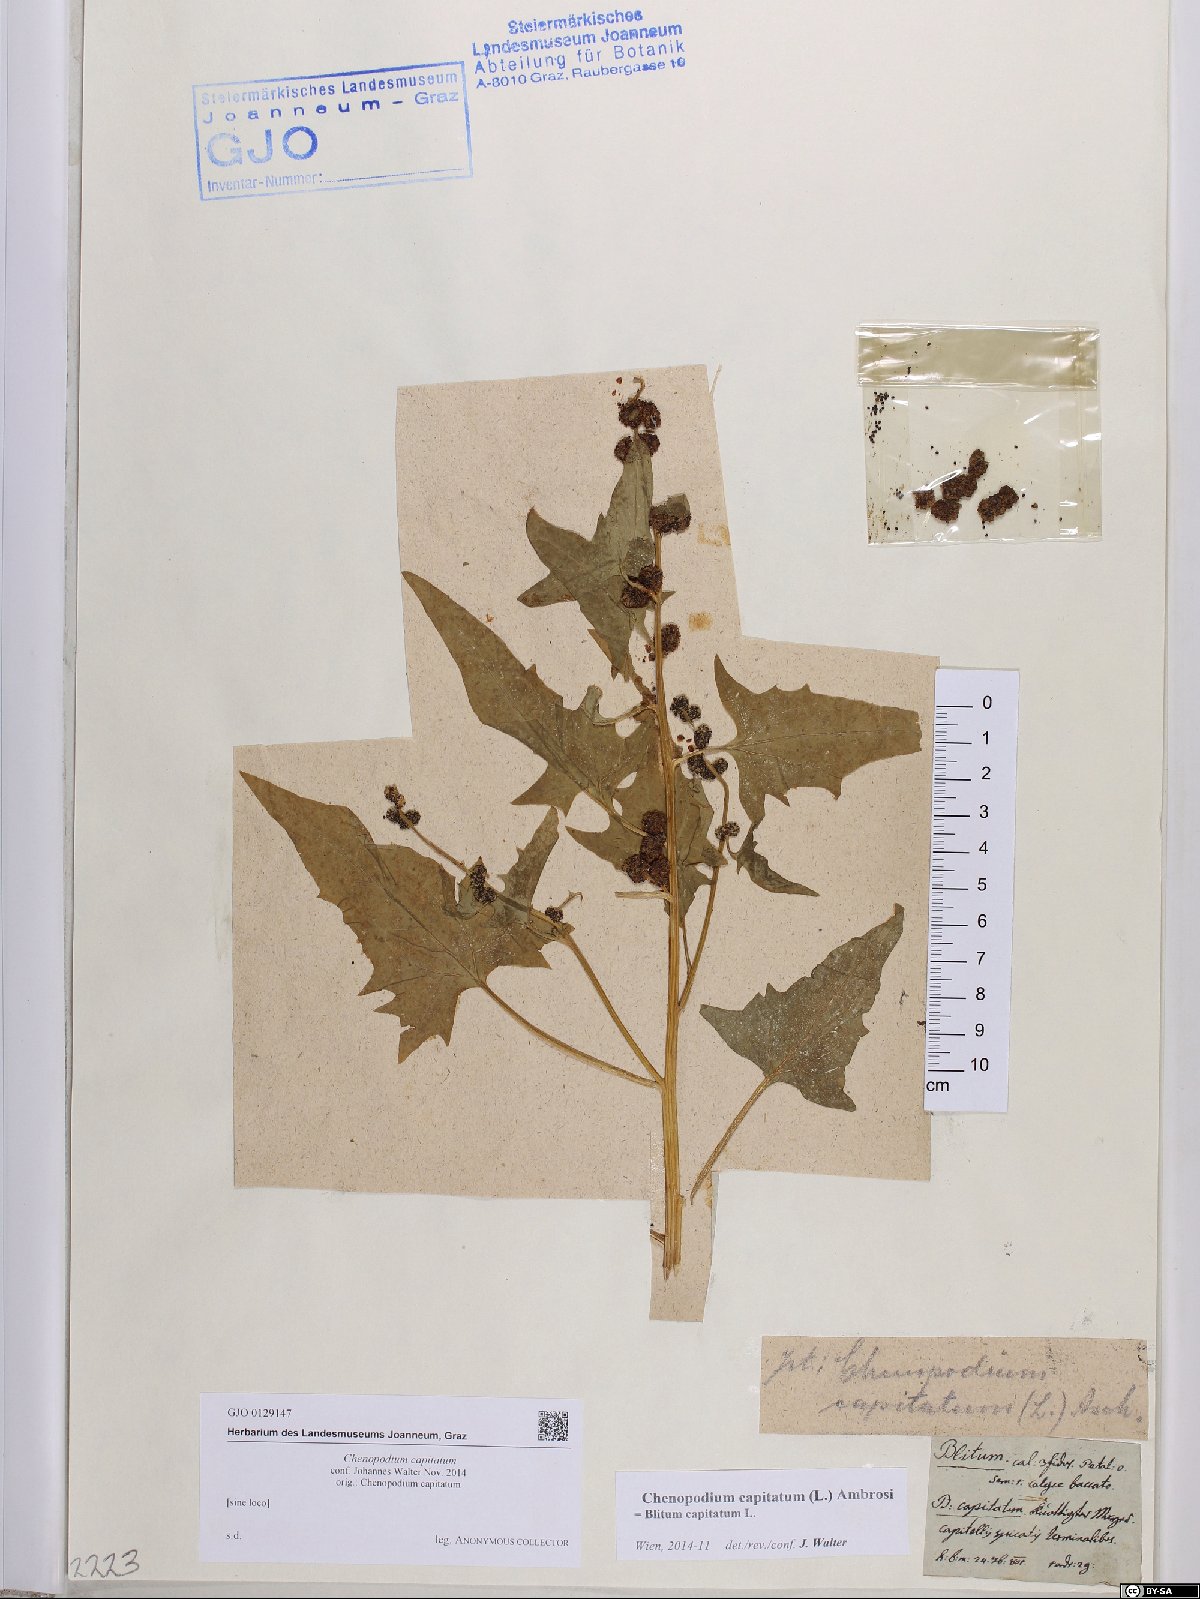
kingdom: Plantae
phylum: Tracheophyta
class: Magnoliopsida
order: Caryophyllales
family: Amaranthaceae
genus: Blitum
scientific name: Blitum capitatum
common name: Strawberry-blight
